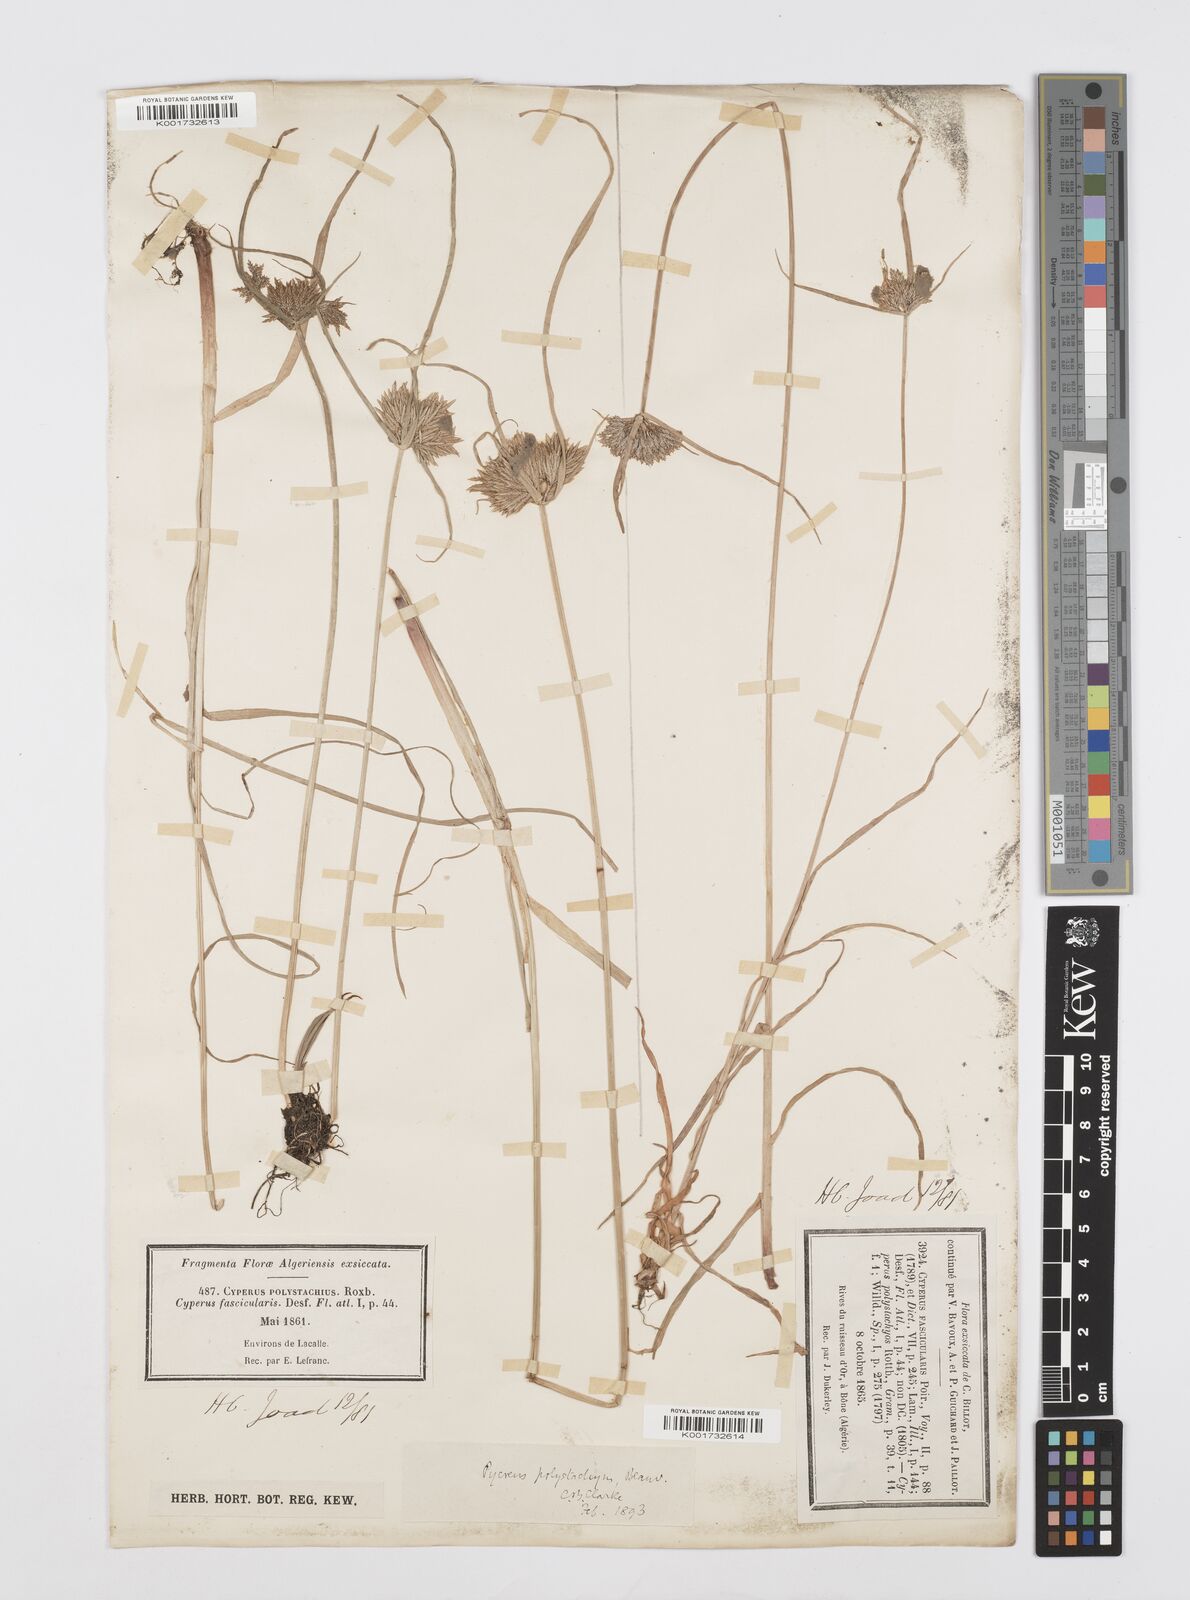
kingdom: Plantae
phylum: Tracheophyta
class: Liliopsida
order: Poales
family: Cyperaceae
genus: Cyperus
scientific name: Cyperus polystachyos
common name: Bunchy flat sedge
